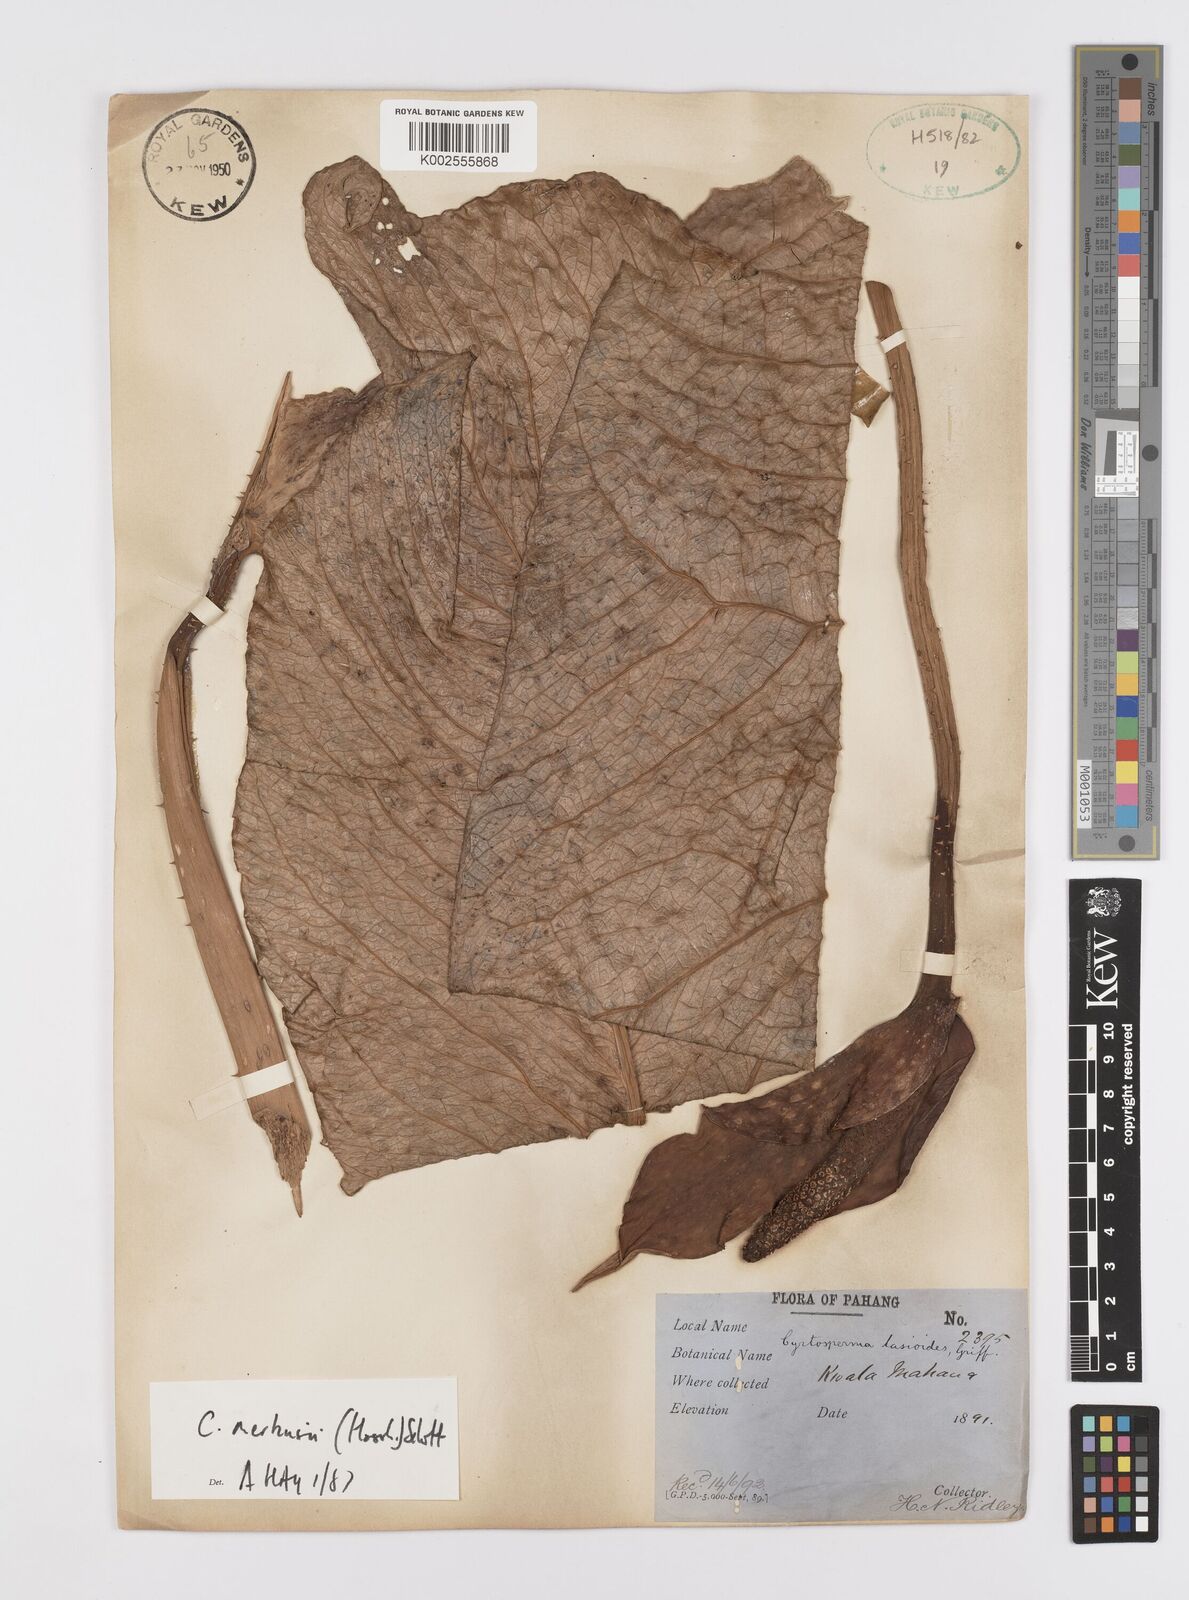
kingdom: Plantae
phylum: Tracheophyta
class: Liliopsida
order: Alismatales
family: Araceae
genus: Cyrtosperma
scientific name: Cyrtosperma merkusii
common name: Giant swamp-taro
